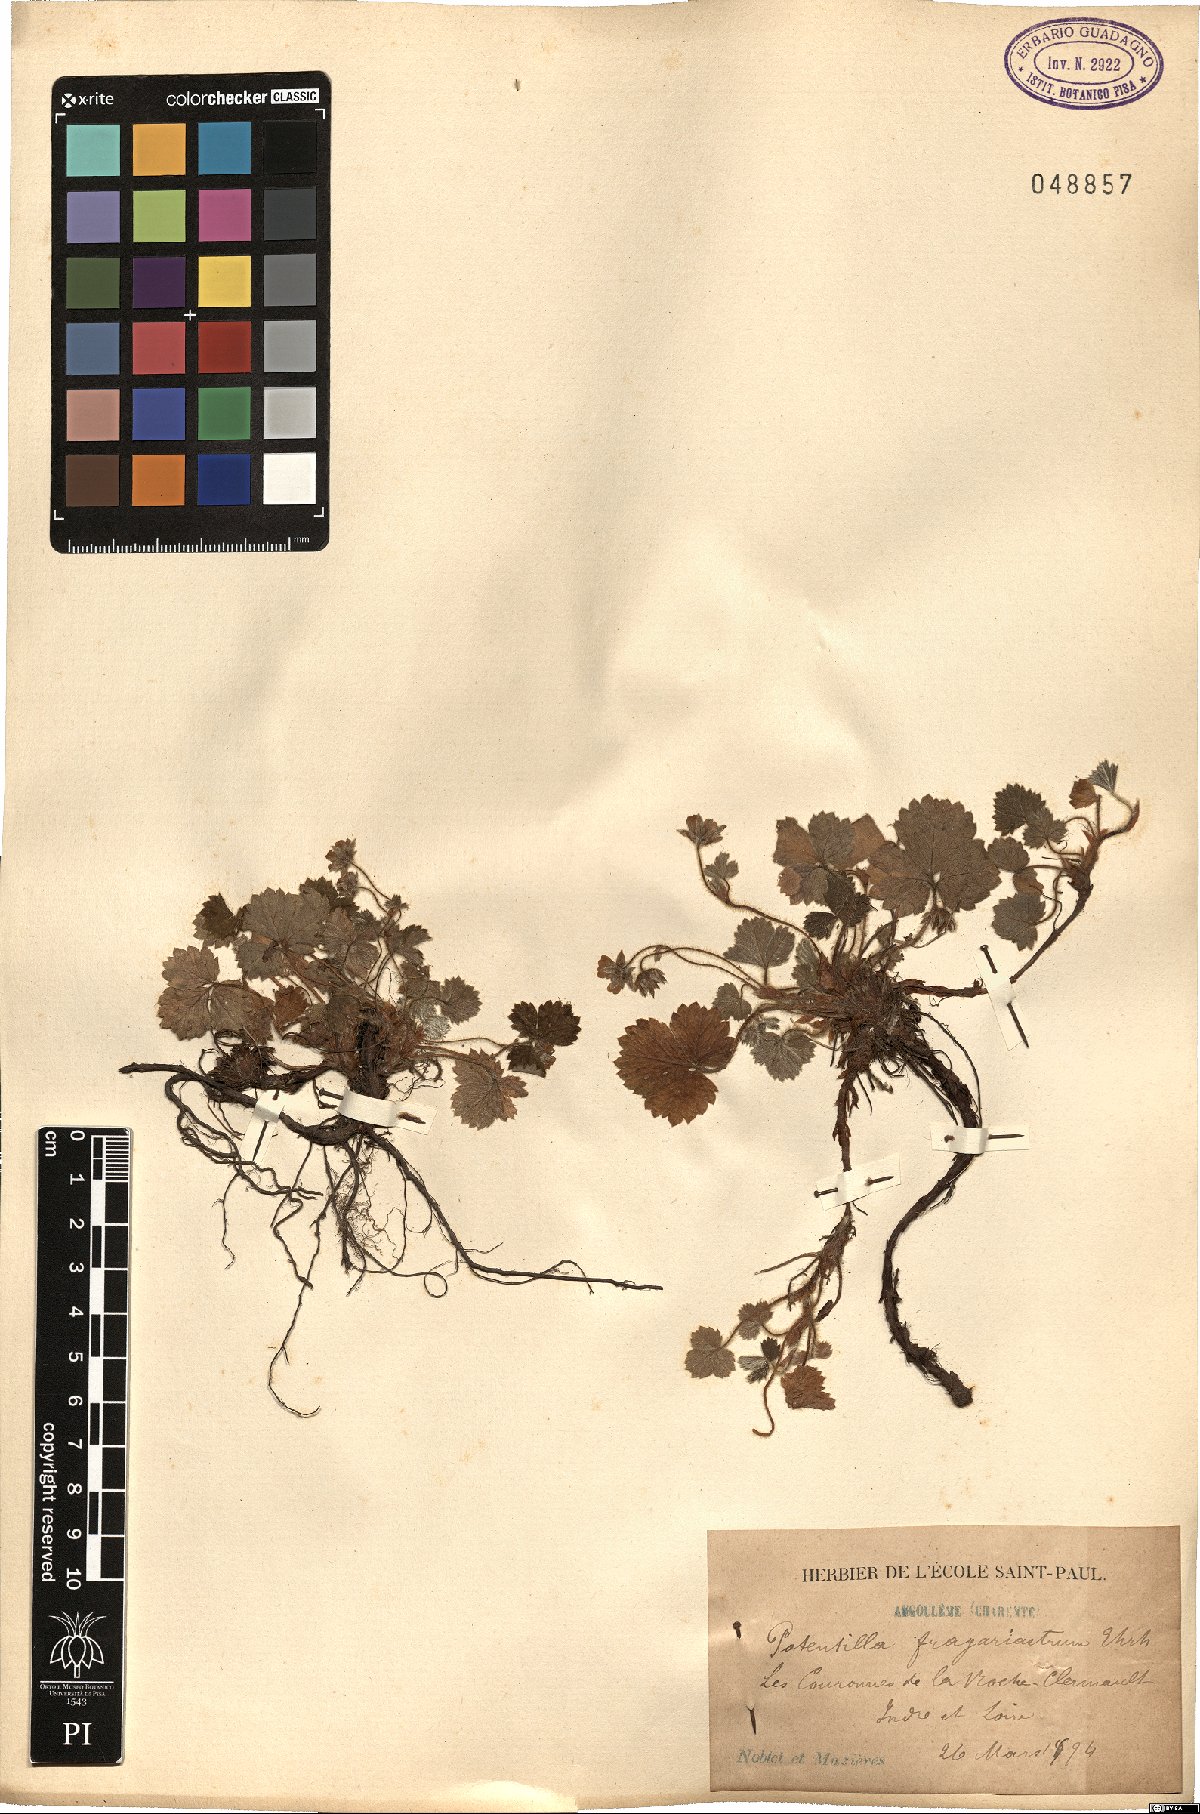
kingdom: Plantae
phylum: Tracheophyta
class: Magnoliopsida
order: Rosales
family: Rosaceae
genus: Potentilla
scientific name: Potentilla sterilis
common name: Barren strawberry
